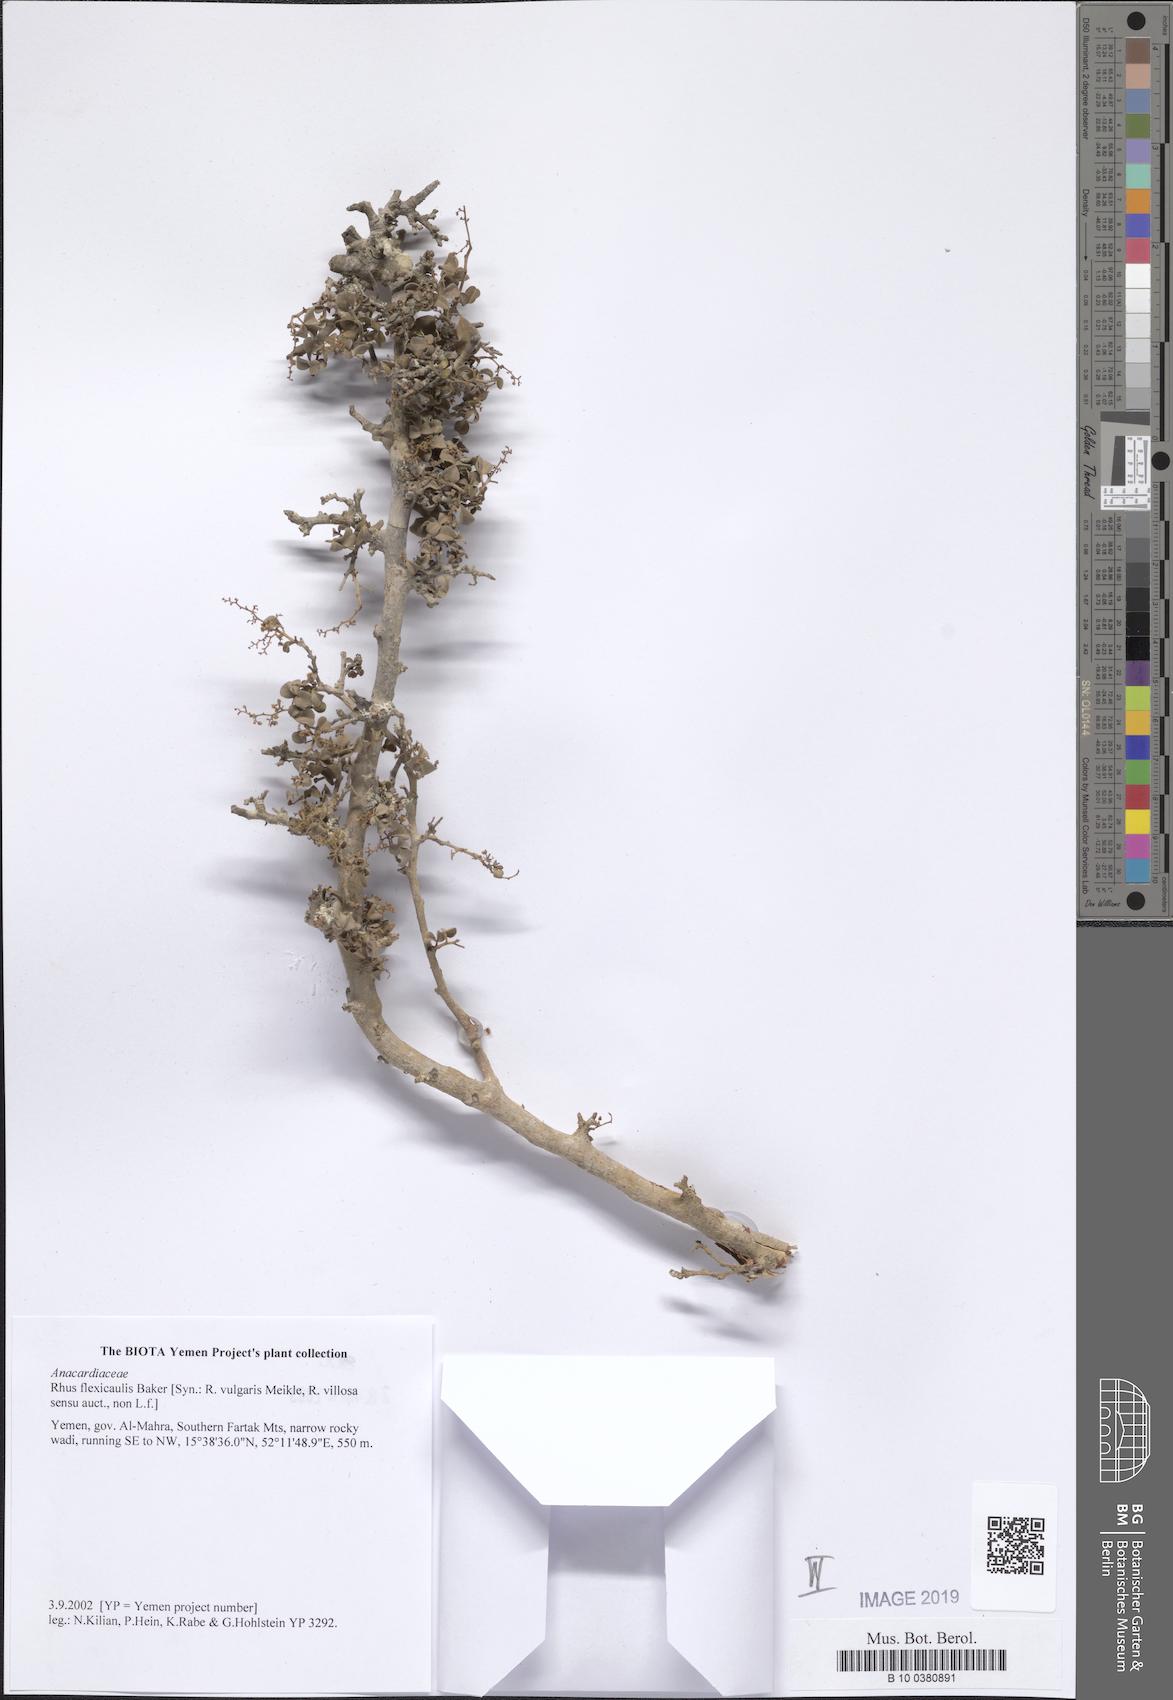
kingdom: Plantae
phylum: Tracheophyta
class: Magnoliopsida
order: Sapindales
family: Anacardiaceae
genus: Searsia
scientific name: Searsia flexicaulis
